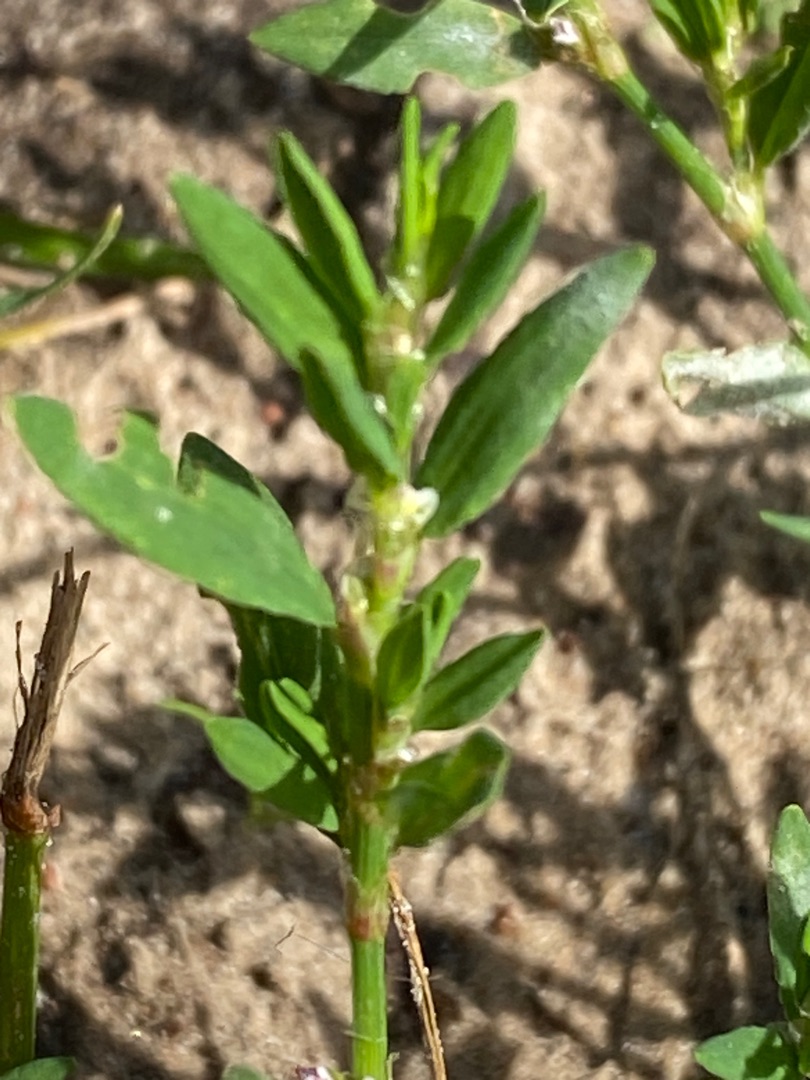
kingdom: Plantae
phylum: Tracheophyta
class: Magnoliopsida
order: Caryophyllales
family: Polygonaceae
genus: Polygonum
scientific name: Polygonum aviculare
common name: Vej-pileurt
